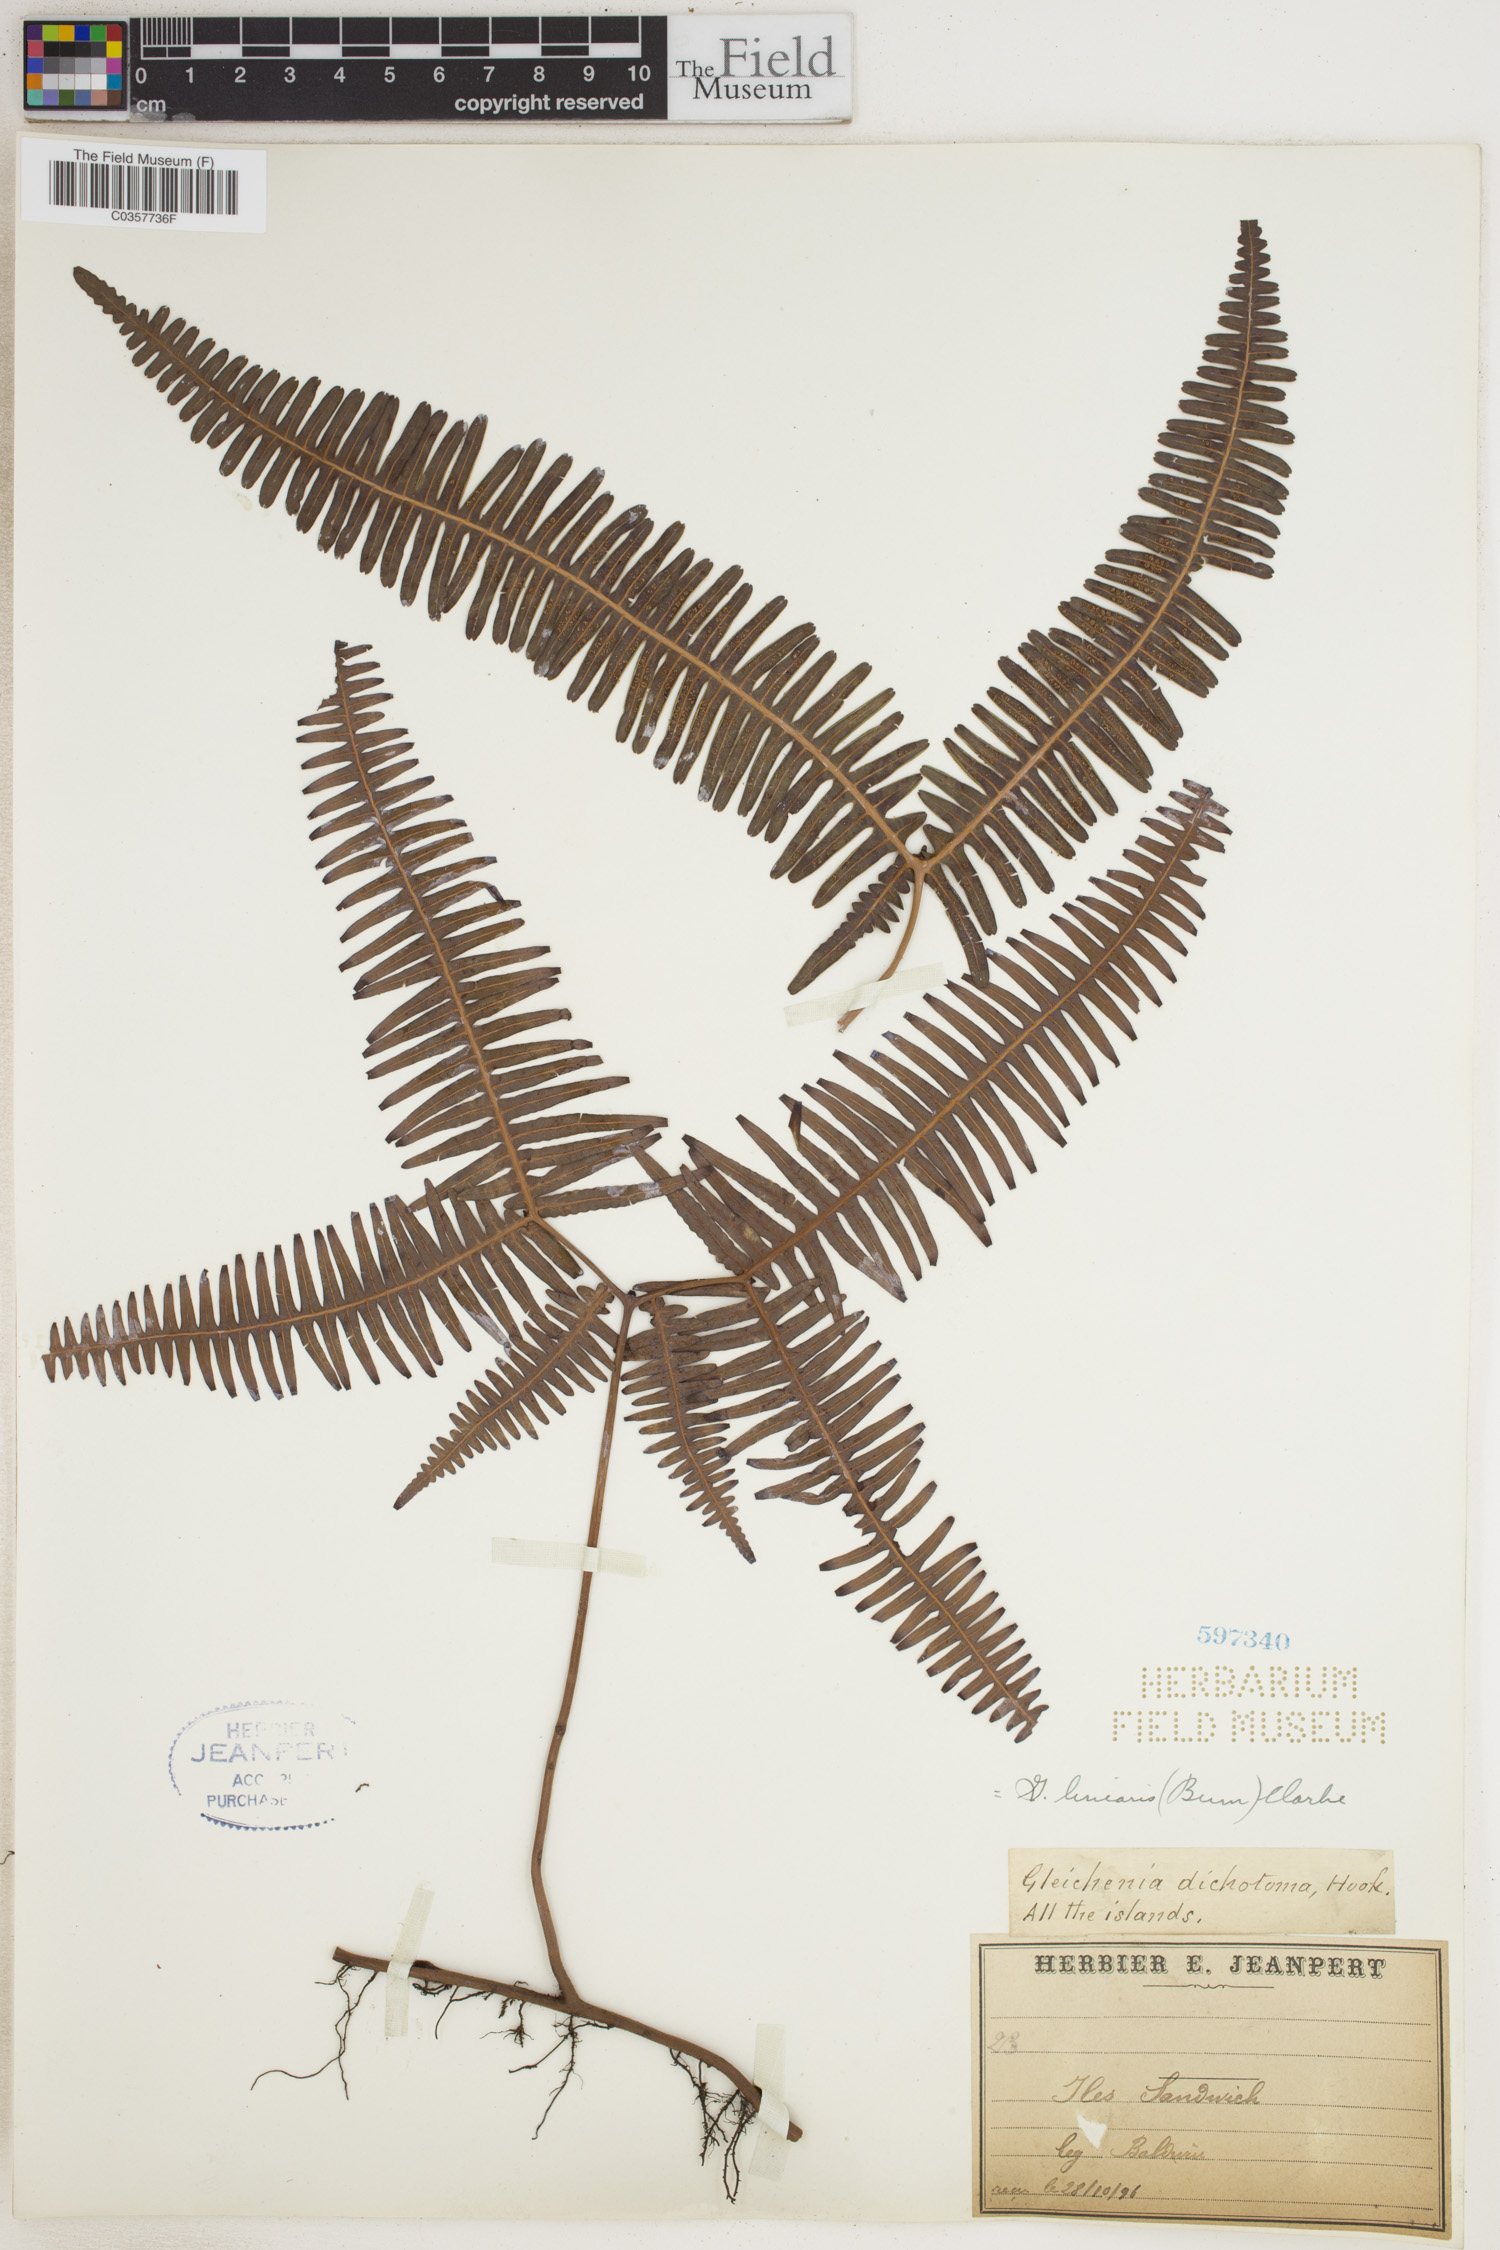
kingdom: Plantae
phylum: Tracheophyta
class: Polypodiopsida
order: Gleicheniales
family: Gleicheniaceae
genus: Dicranopteris
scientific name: Dicranopteris linearis
